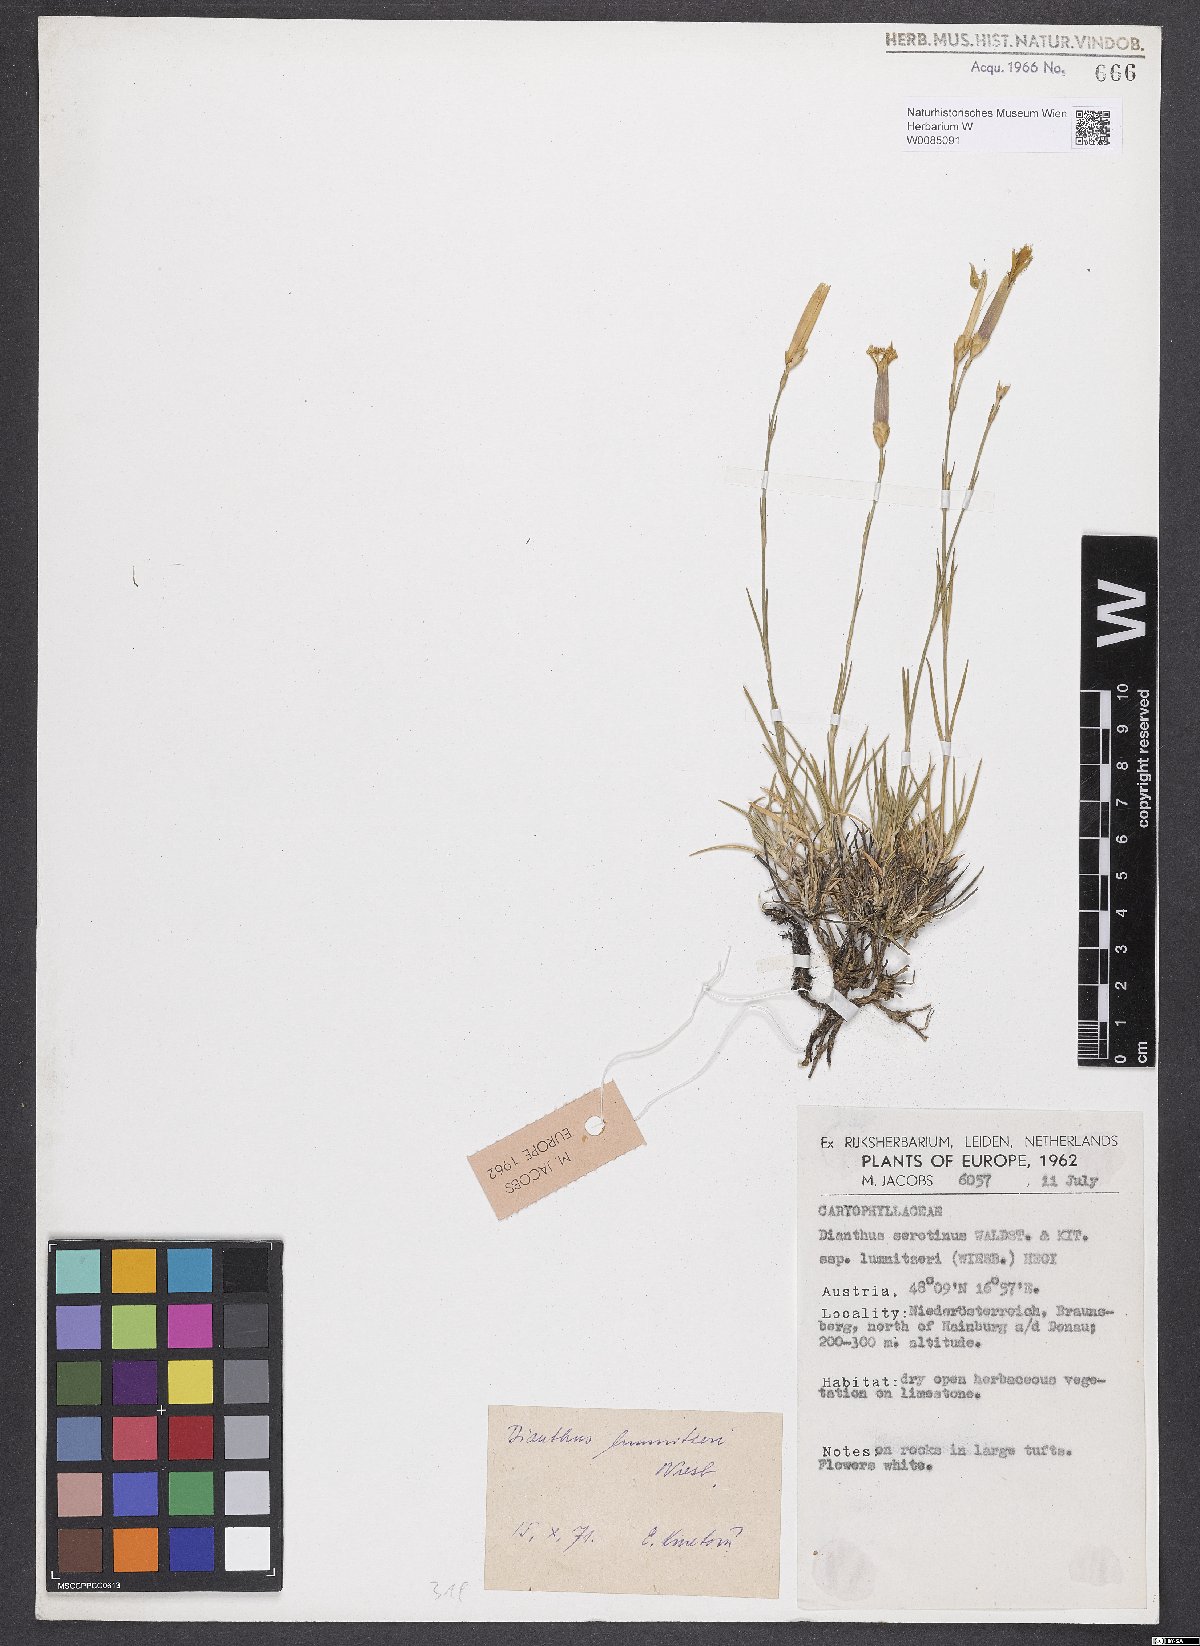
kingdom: Plantae
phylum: Tracheophyta
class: Magnoliopsida
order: Caryophyllales
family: Caryophyllaceae
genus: Dianthus
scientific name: Dianthus praecox
